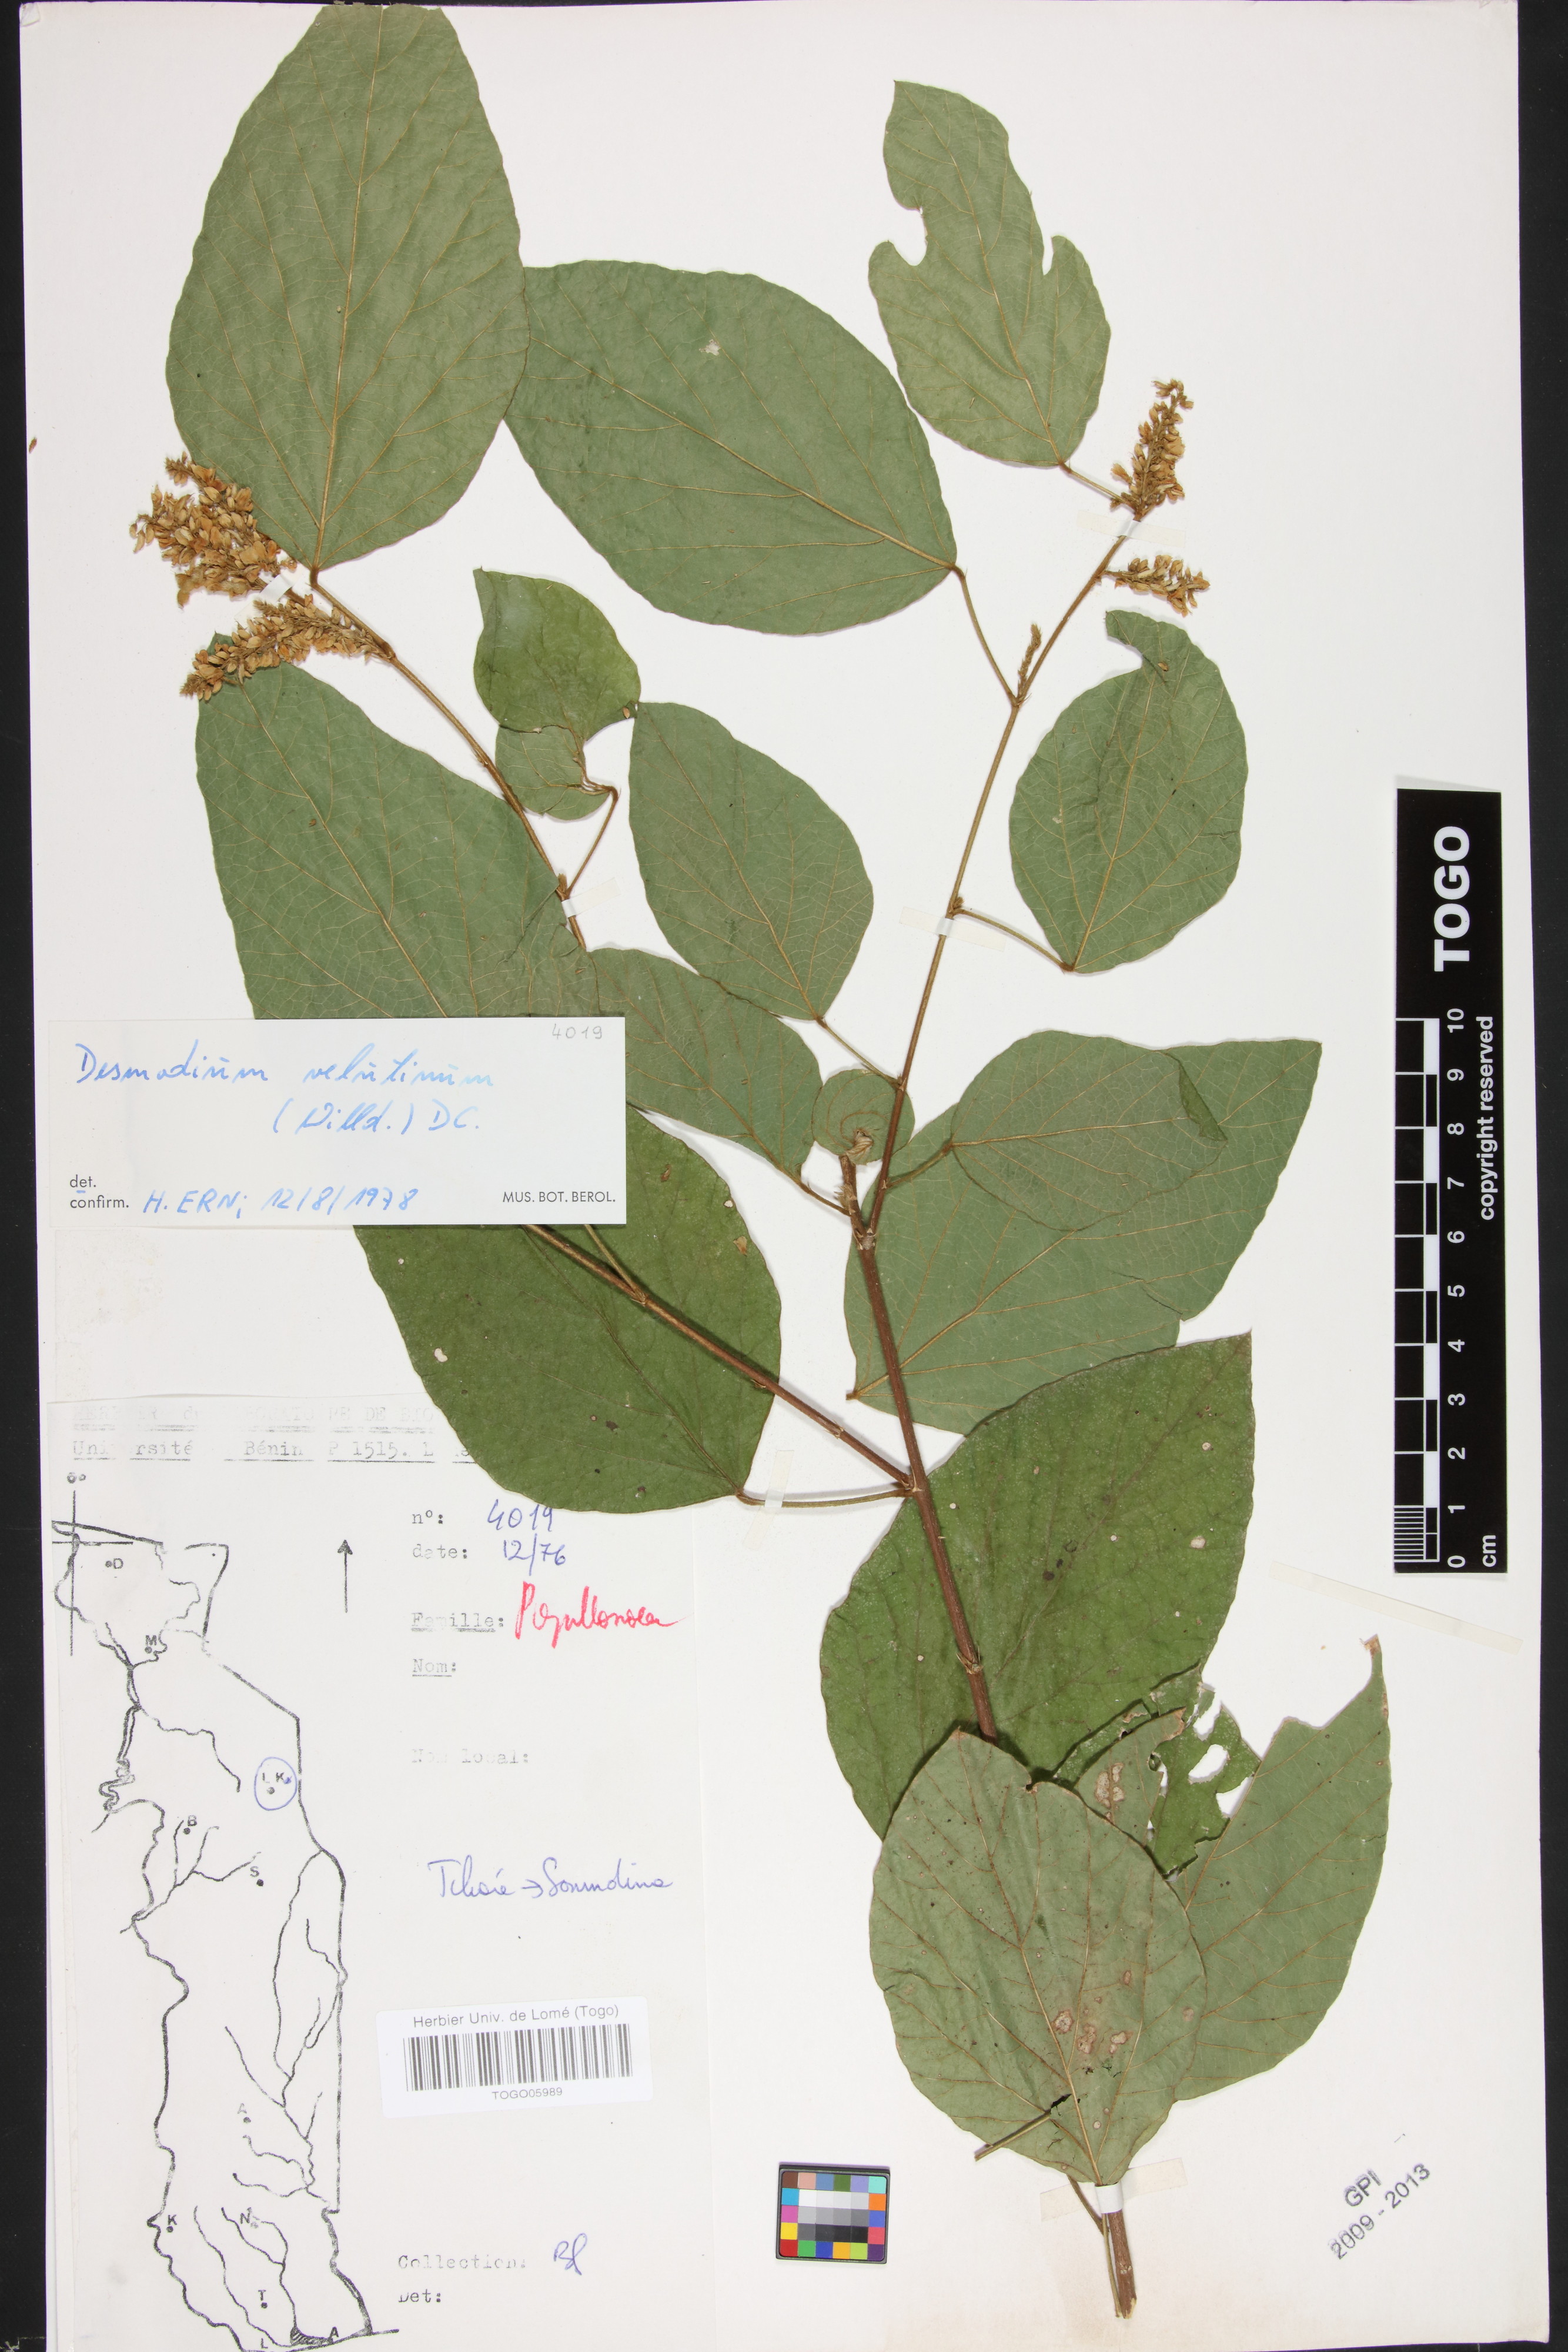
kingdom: Plantae
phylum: Tracheophyta
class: Magnoliopsida
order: Fabales
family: Fabaceae
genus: Polhillides
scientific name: Polhillides velutina
